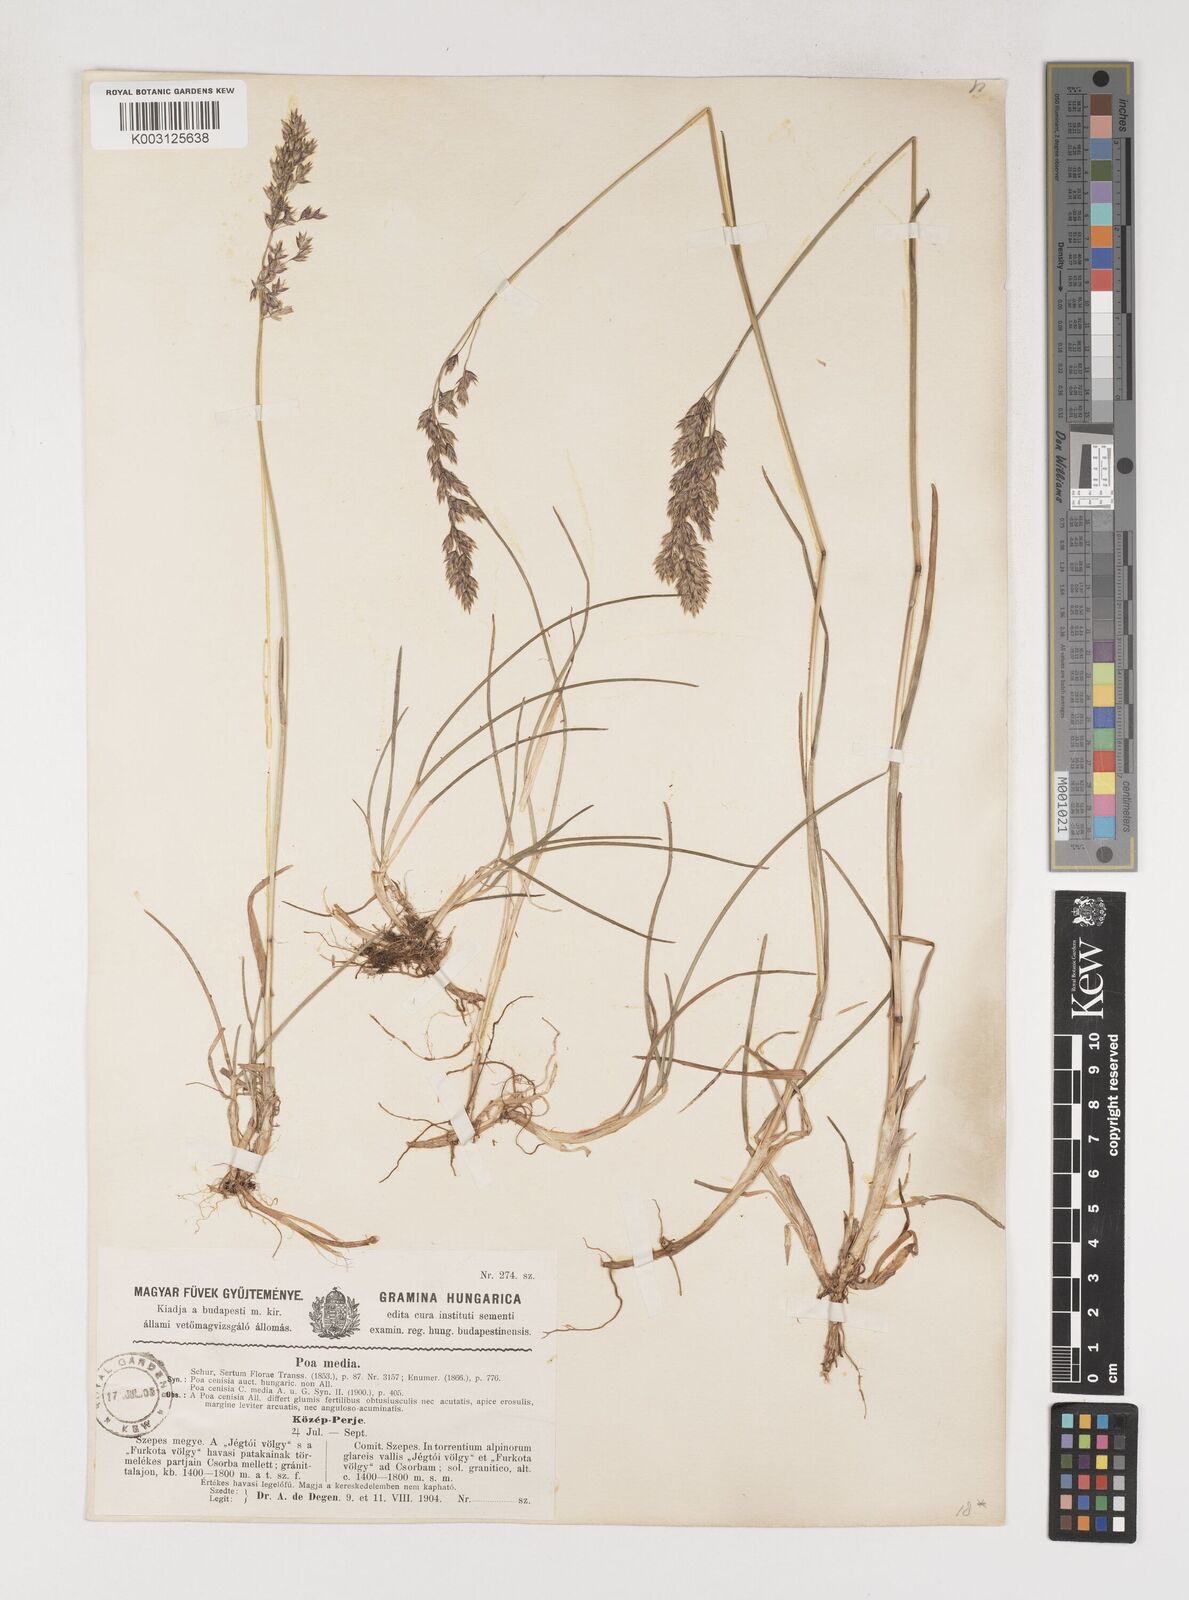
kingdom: Plantae
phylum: Tracheophyta
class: Liliopsida
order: Poales
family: Poaceae
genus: Poa
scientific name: Poa cenisia
